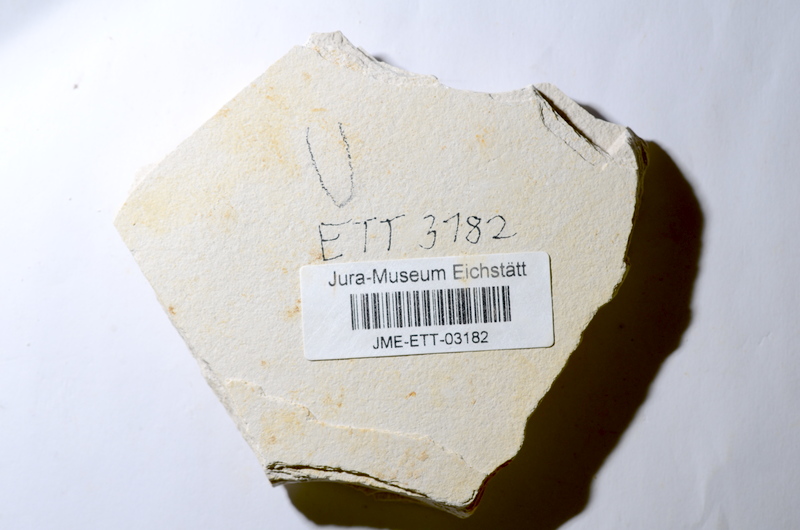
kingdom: Animalia
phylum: Chordata
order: Salmoniformes
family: Orthogonikleithridae
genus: Orthogonikleithrus
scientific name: Orthogonikleithrus hoelli
